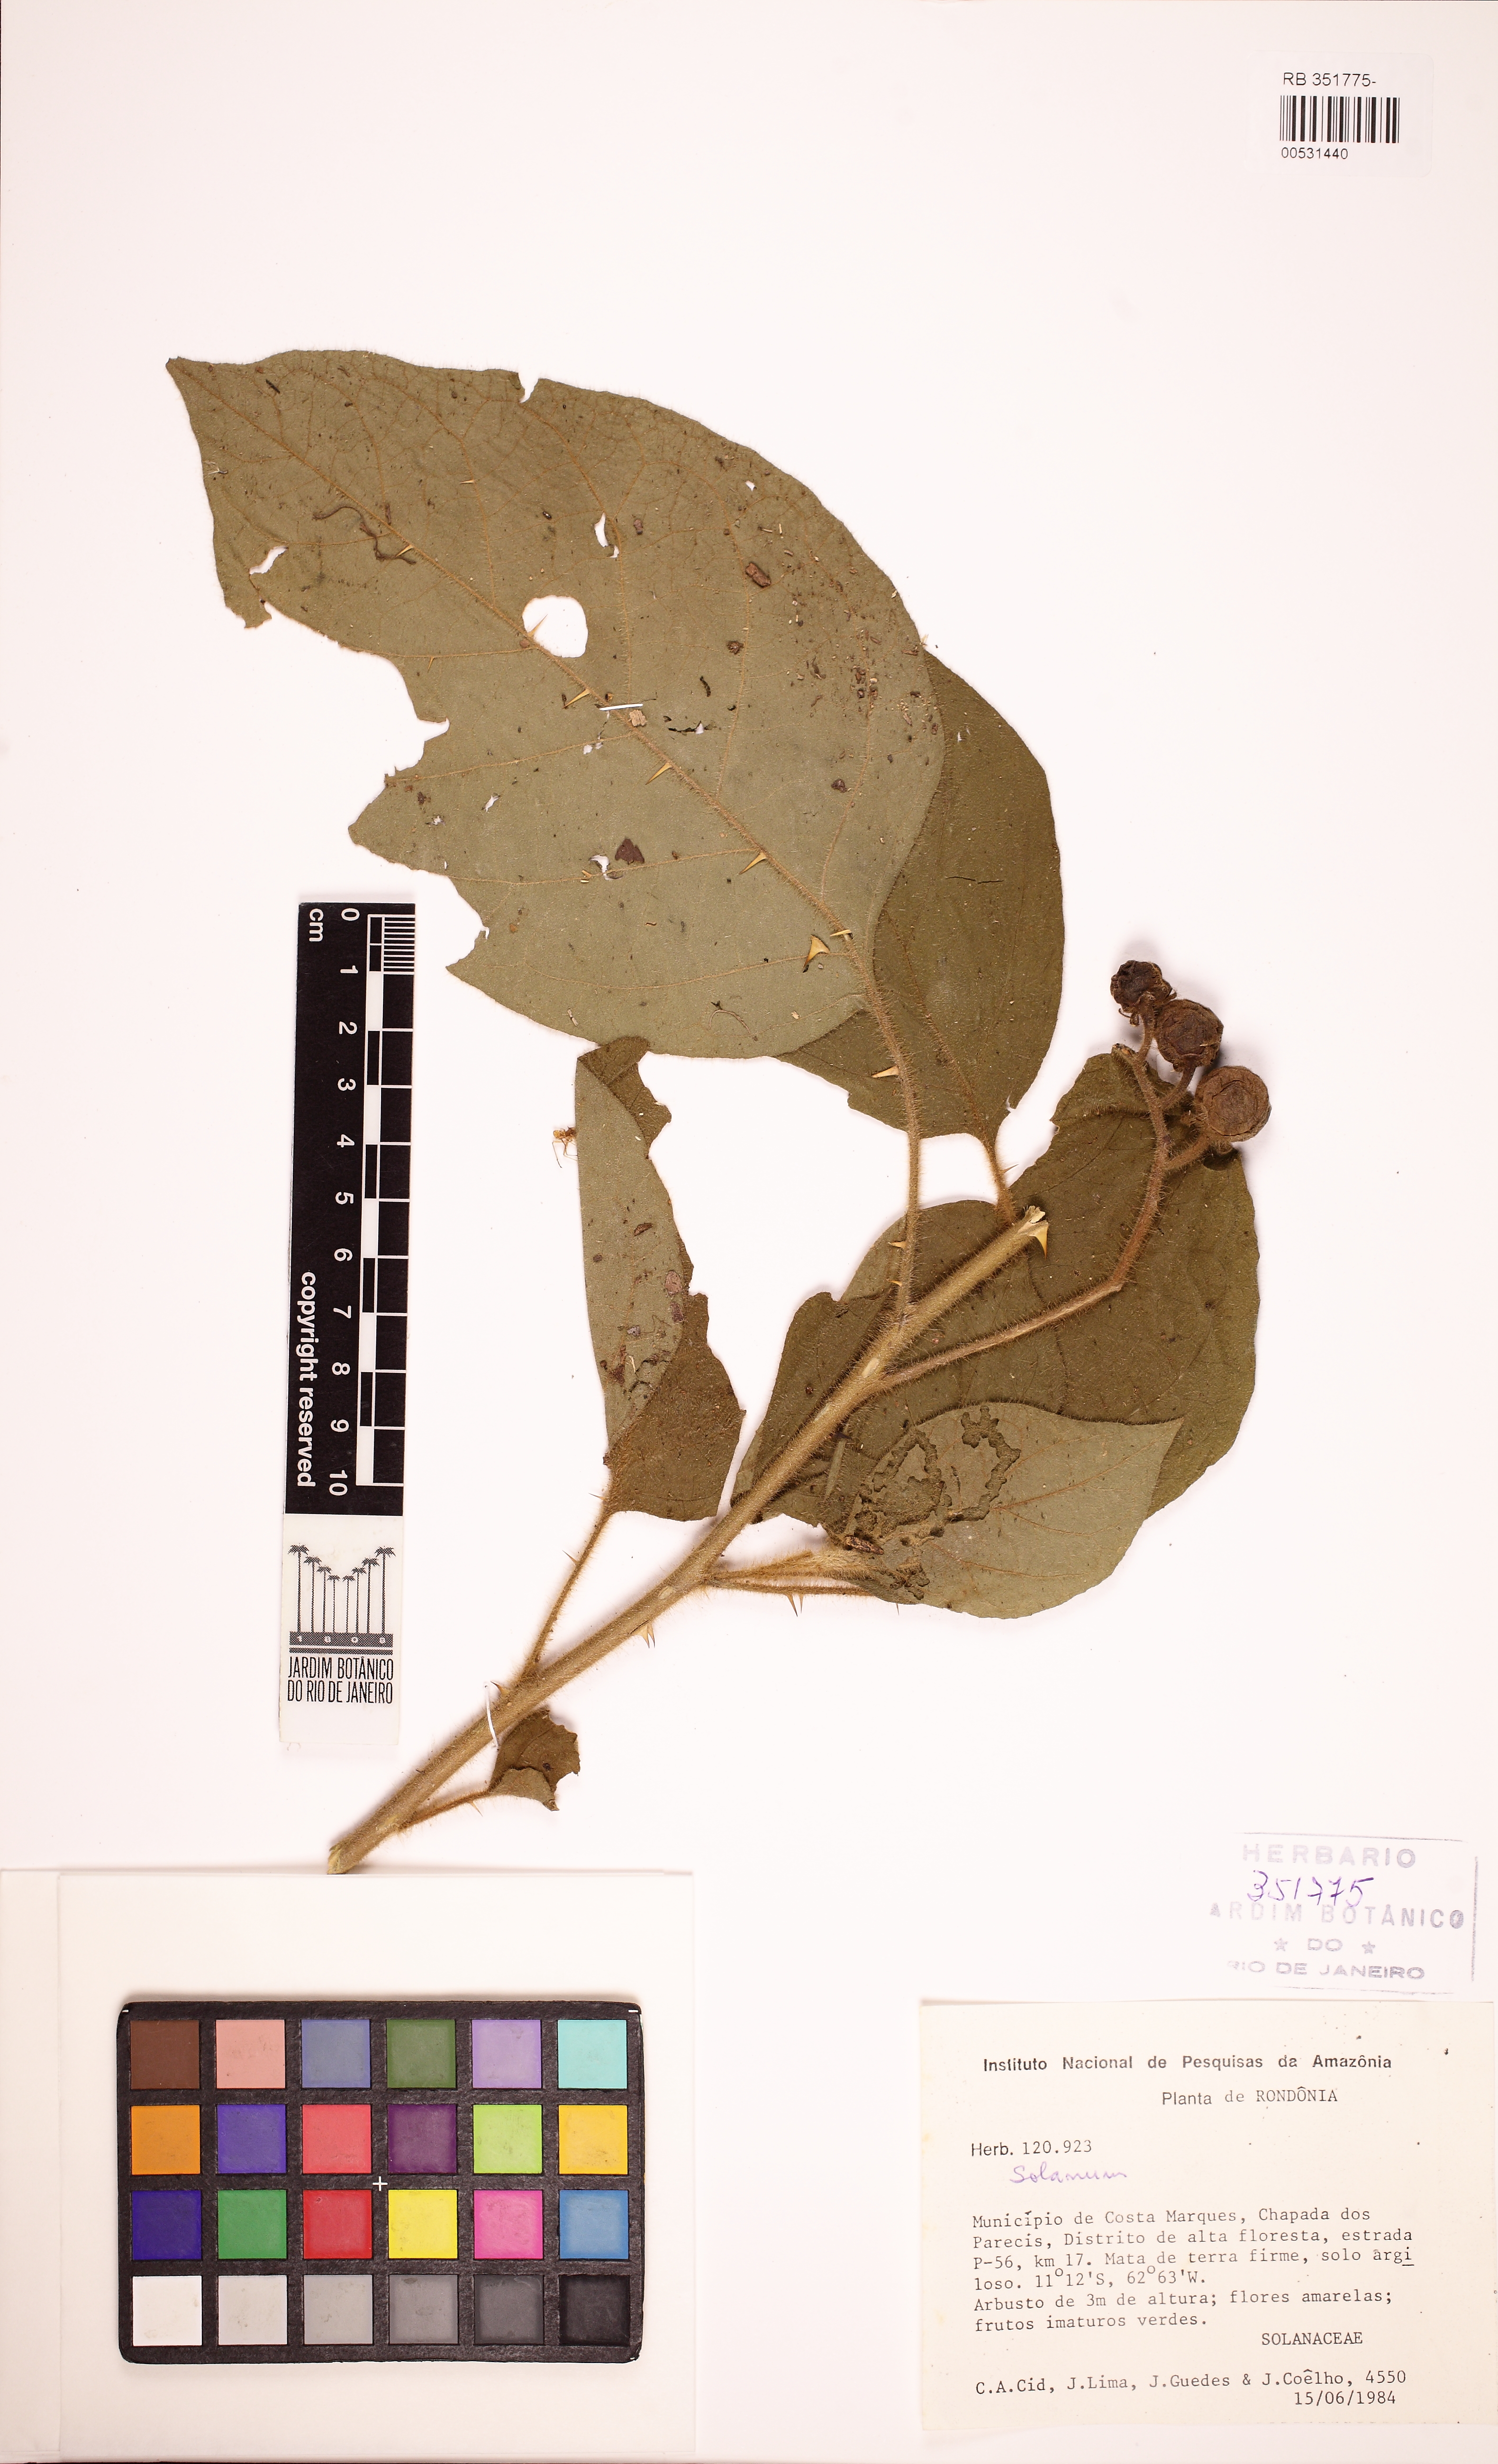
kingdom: Plantae
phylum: Tracheophyta
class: Magnoliopsida
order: Solanales
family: Solanaceae
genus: Solanum
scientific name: Solanum
